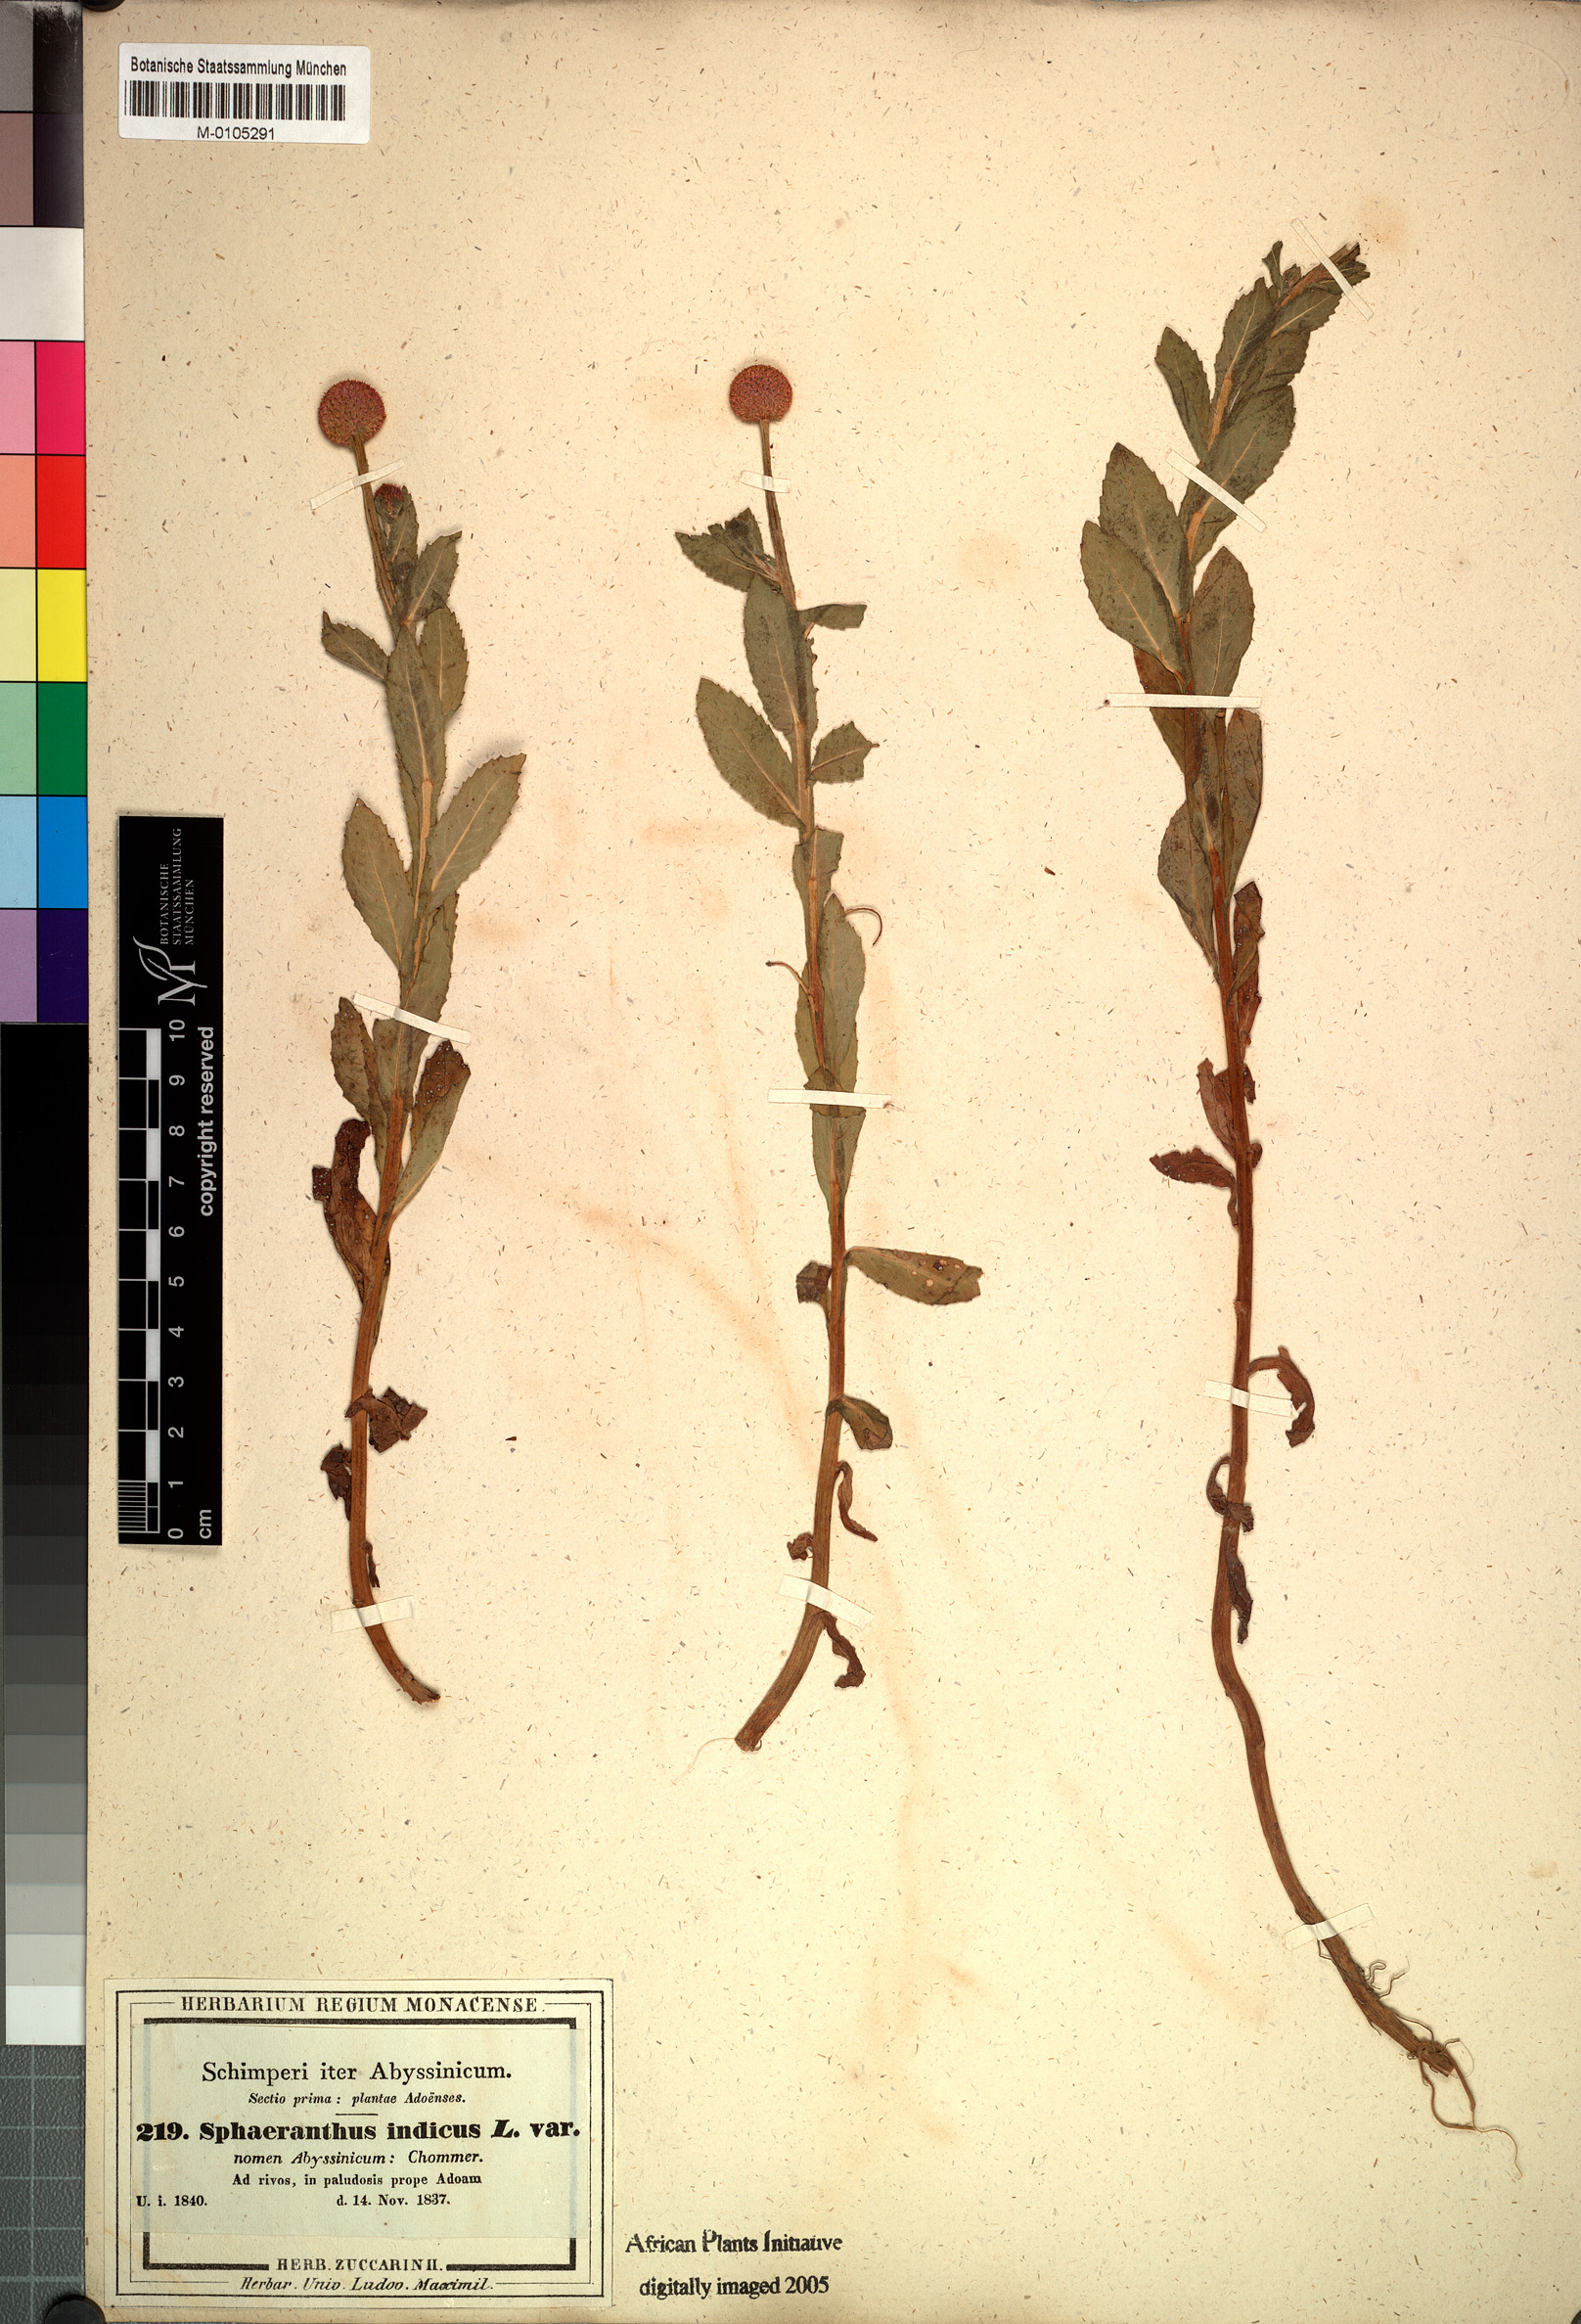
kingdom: Plantae
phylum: Tracheophyta
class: Magnoliopsida
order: Asterales
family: Asteraceae
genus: Sphaeranthus
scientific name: Sphaeranthus suaveolens
